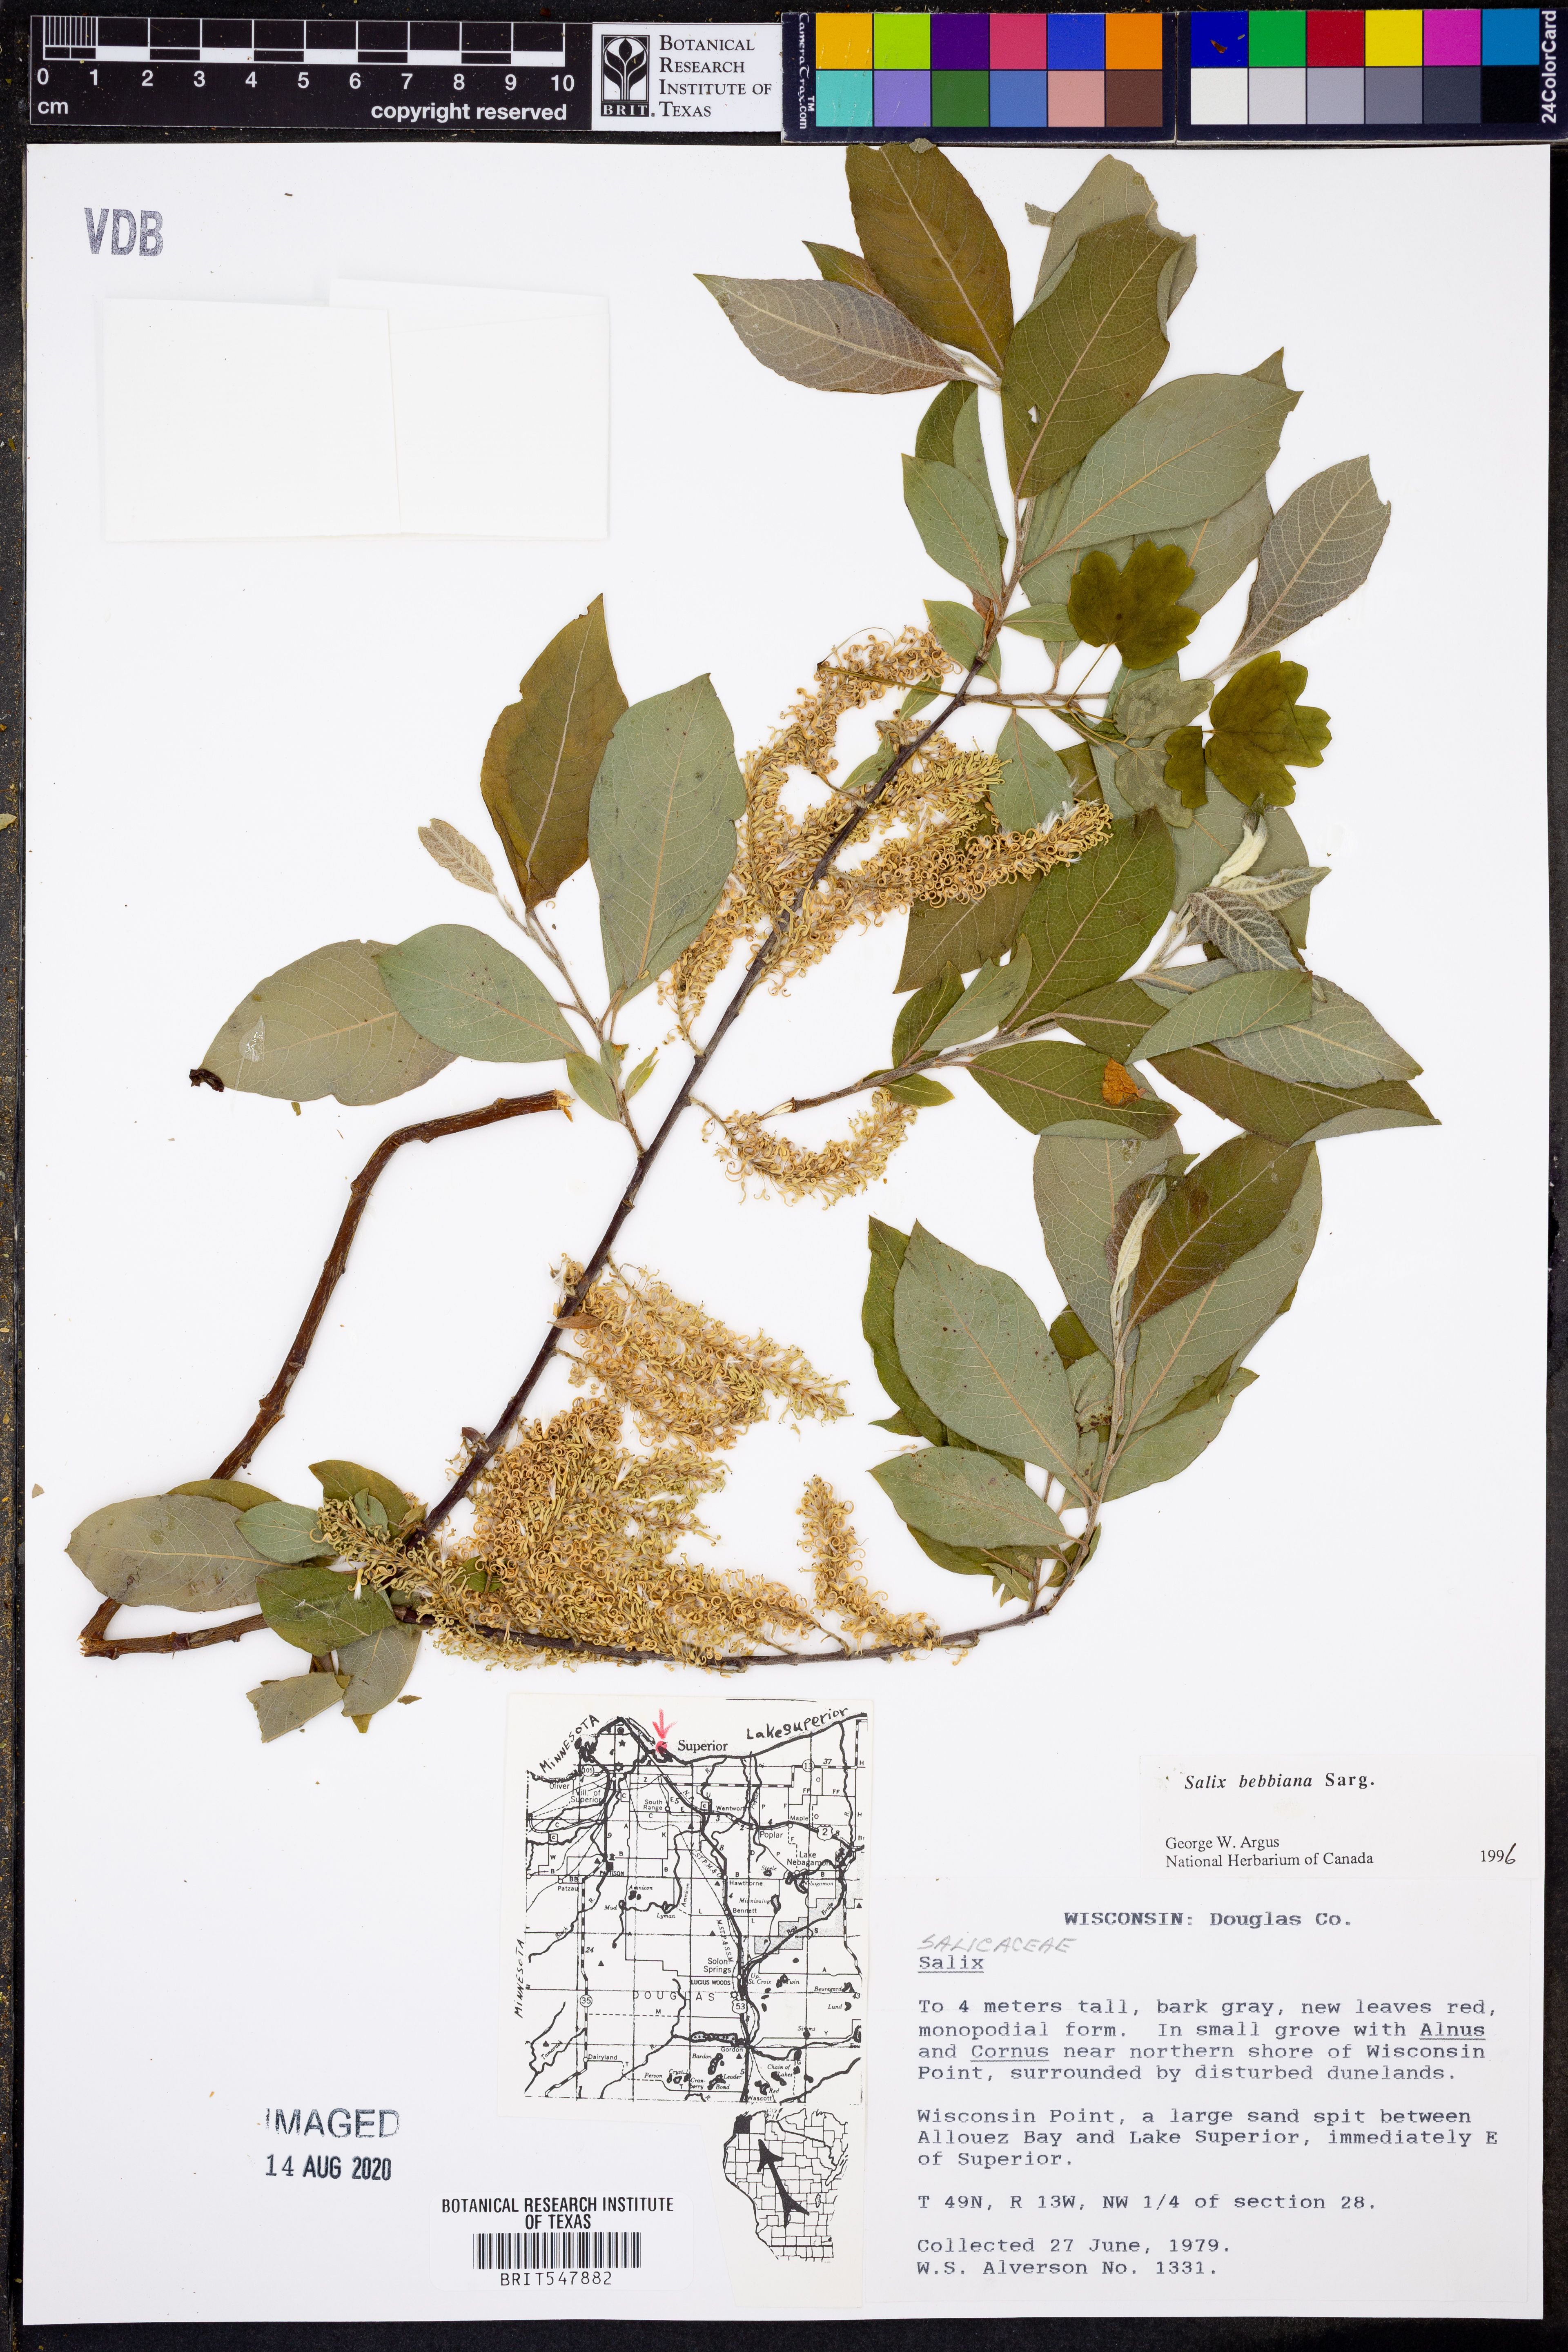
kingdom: Plantae
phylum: Tracheophyta
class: Magnoliopsida
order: Malpighiales
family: Salicaceae
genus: Salix
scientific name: Salix bebbiana
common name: Bebb's willow
